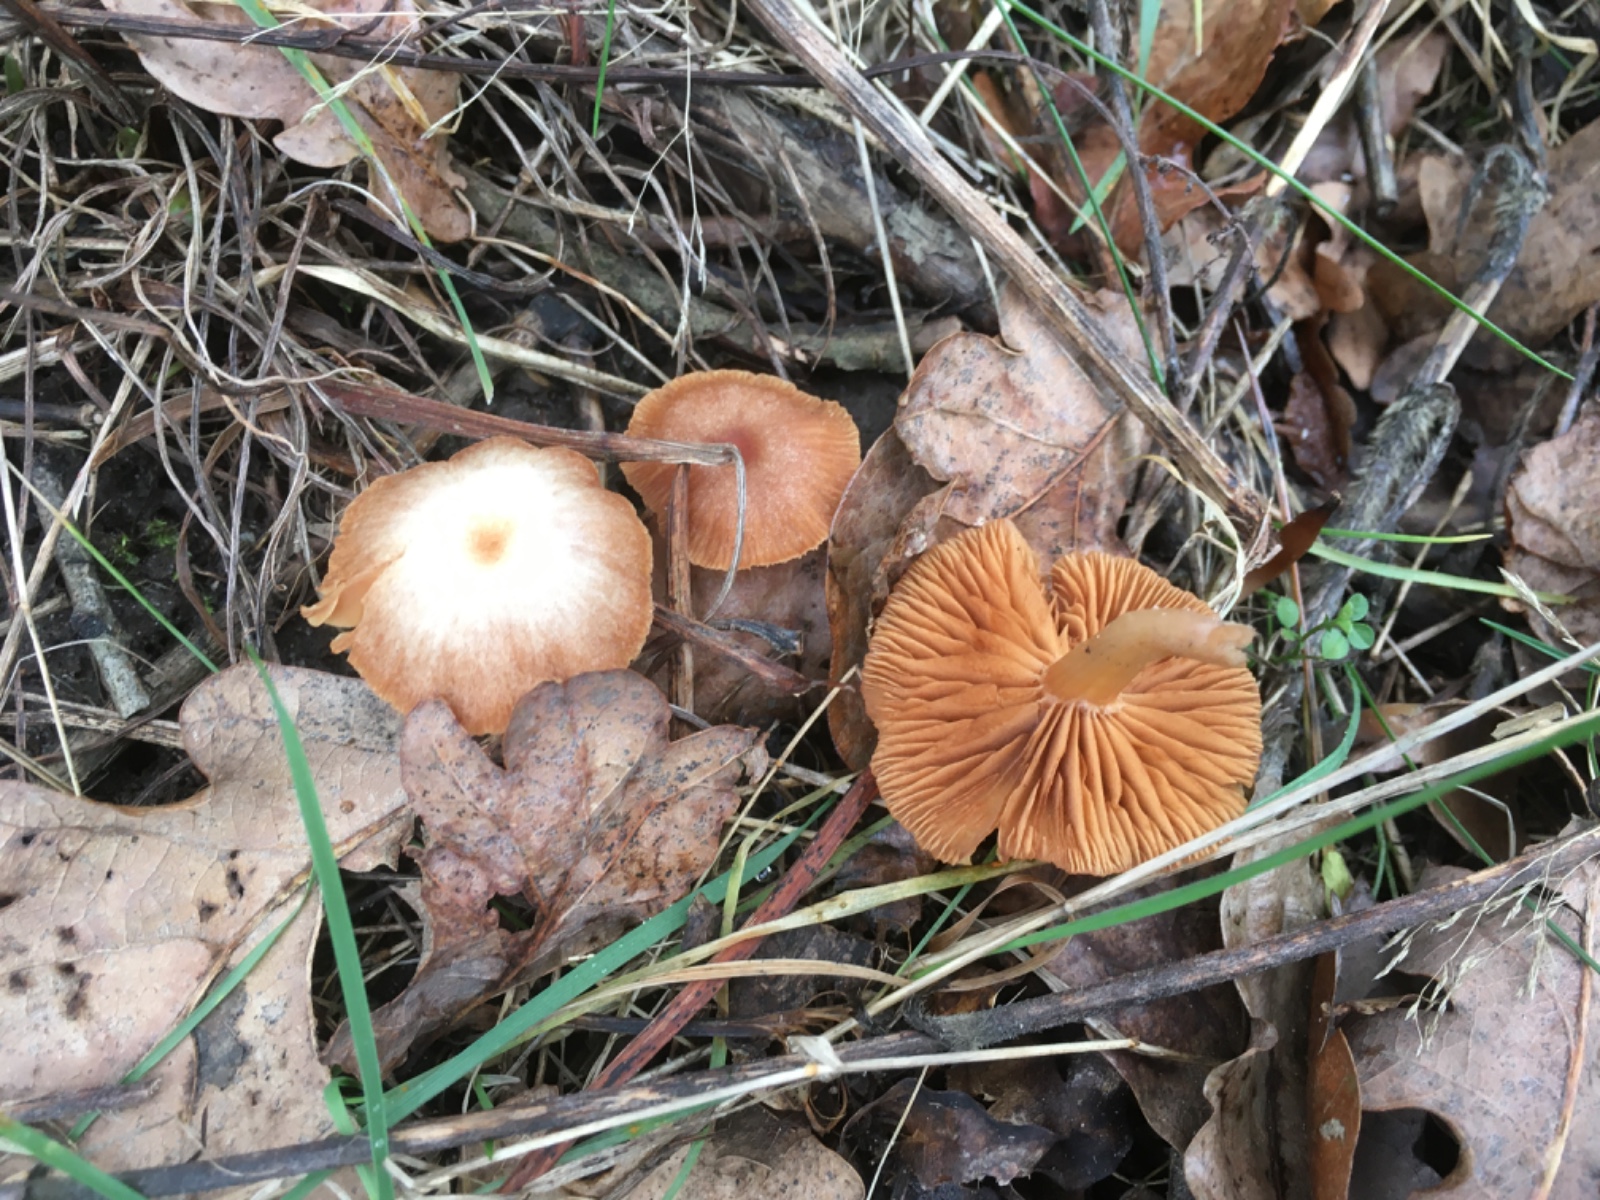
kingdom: Fungi
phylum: Basidiomycota
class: Agaricomycetes
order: Agaricales
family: Tubariaceae
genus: Tubaria
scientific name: Tubaria furfuracea
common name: kliddet fnughat
